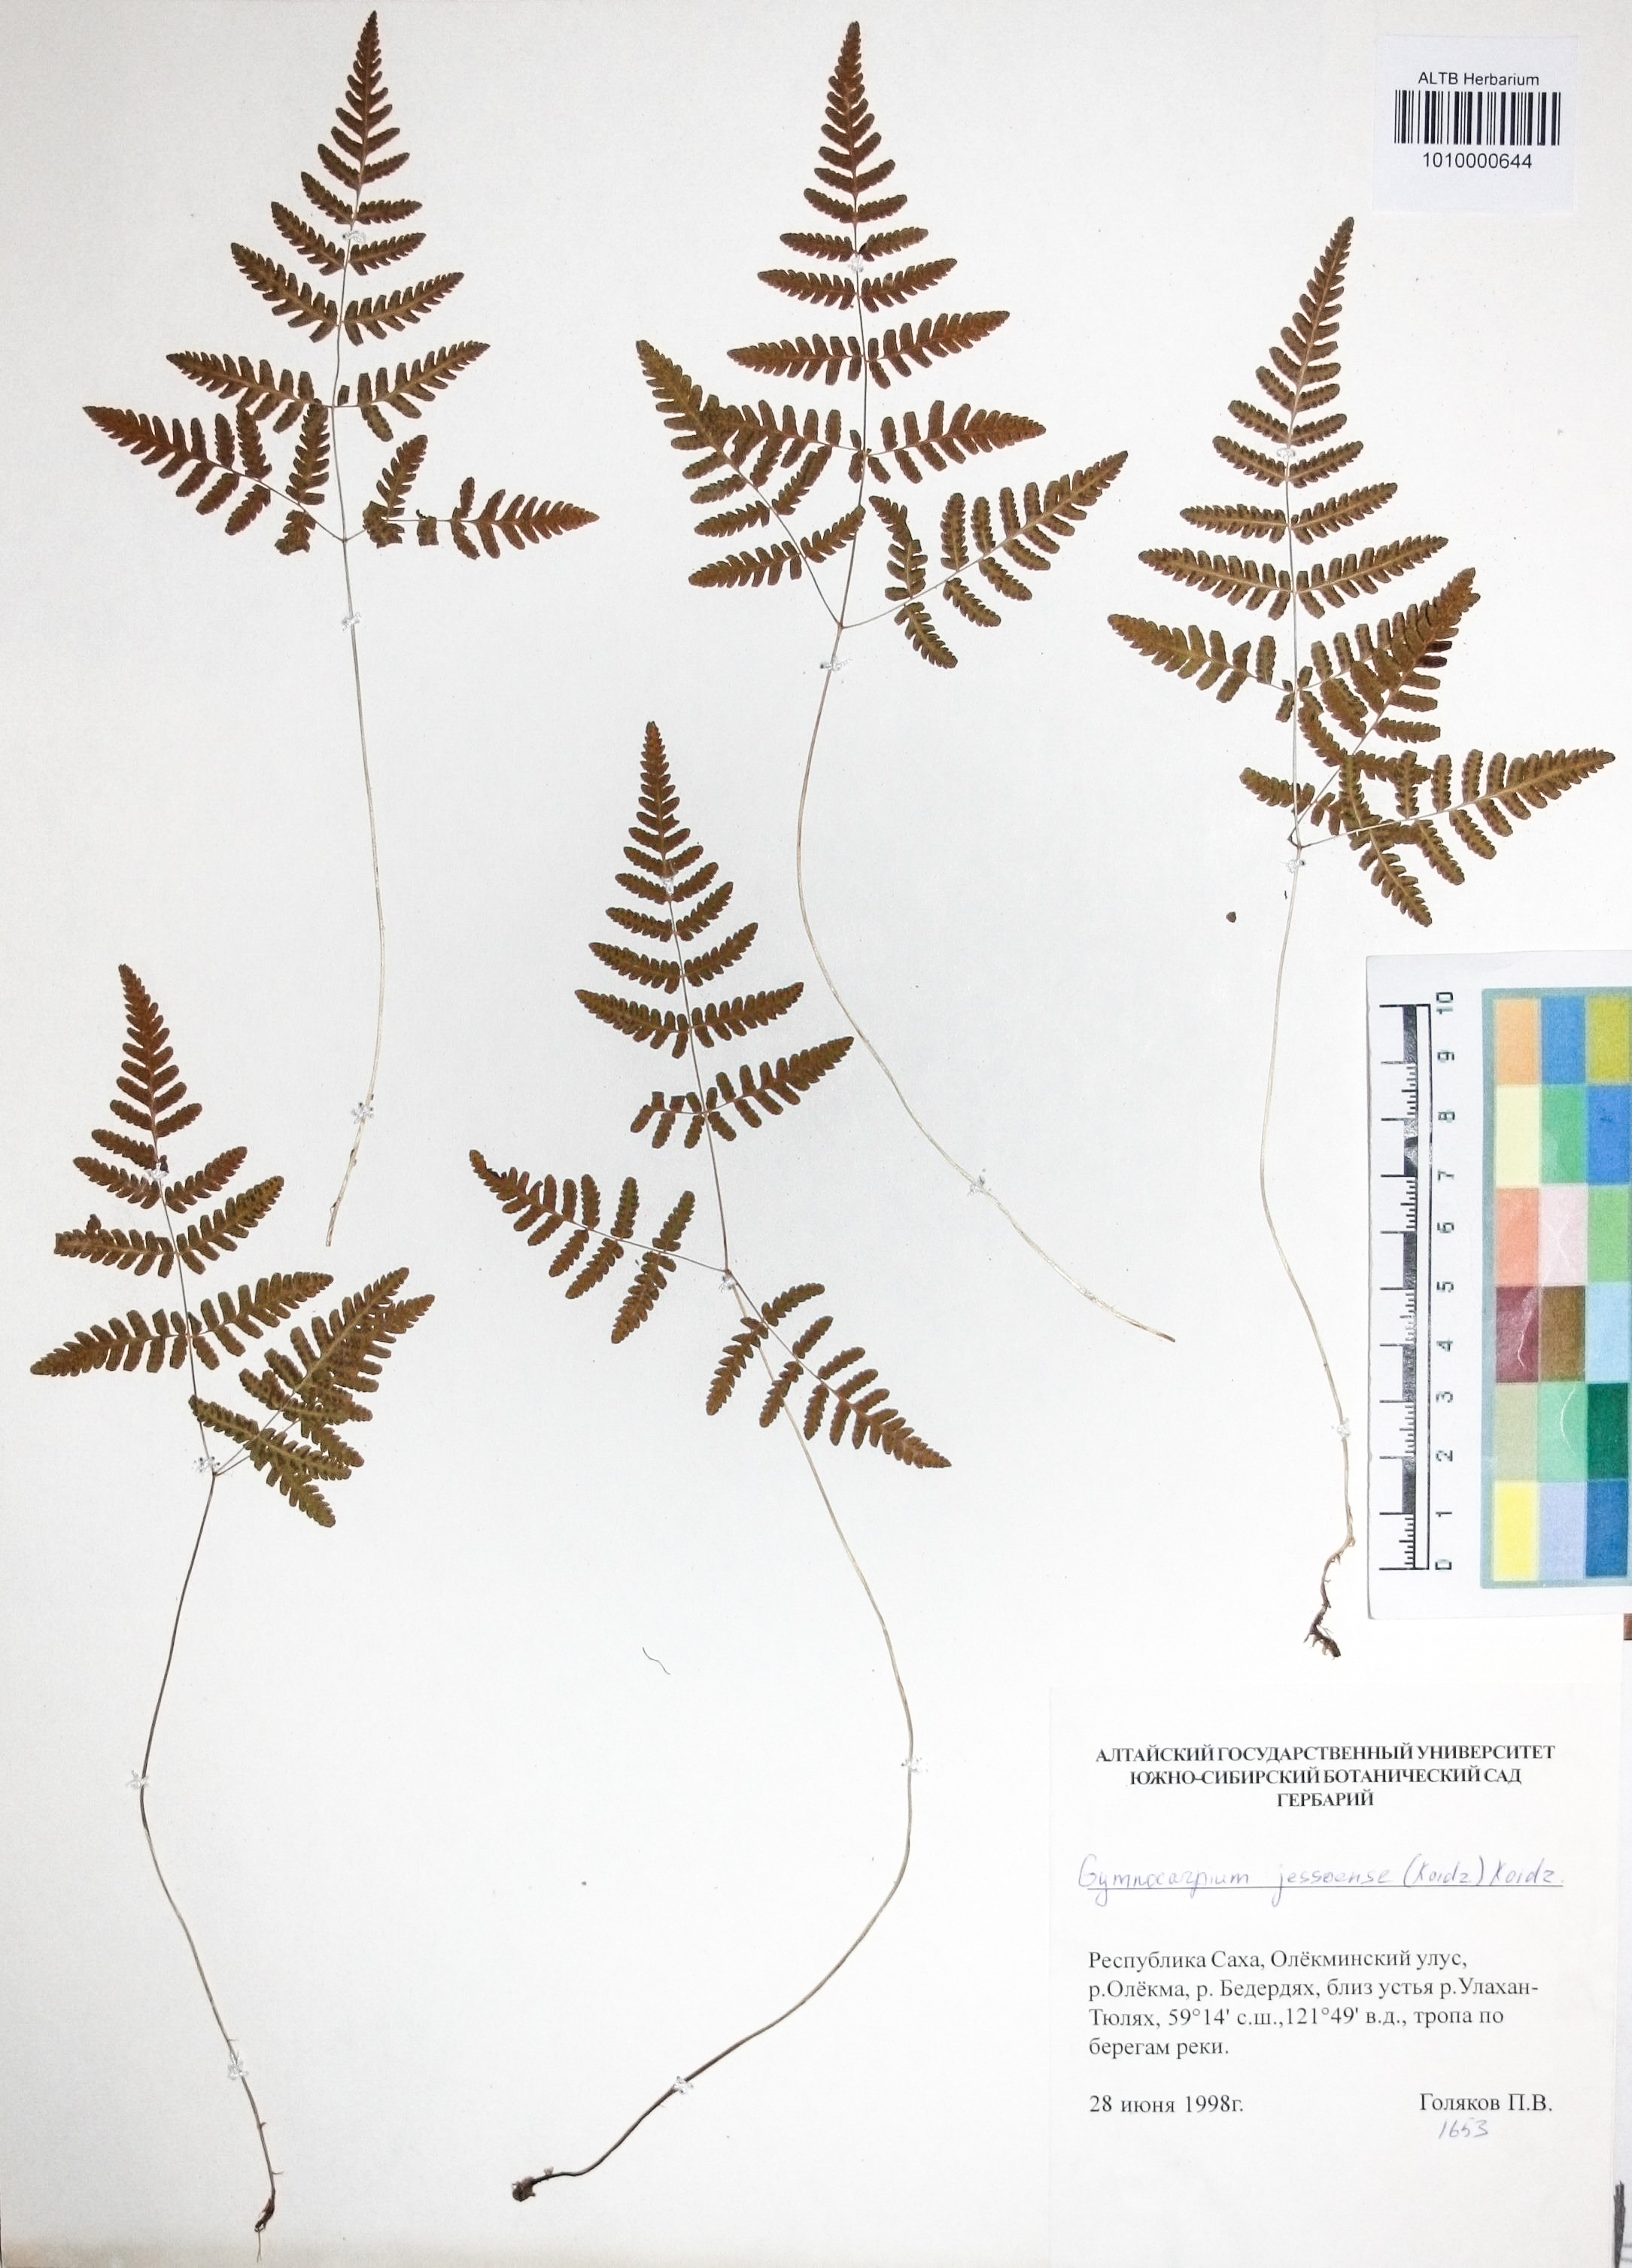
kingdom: Plantae
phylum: Tracheophyta
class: Polypodiopsida
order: Polypodiales
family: Cystopteridaceae
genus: Gymnocarpium
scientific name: Gymnocarpium jessoense
